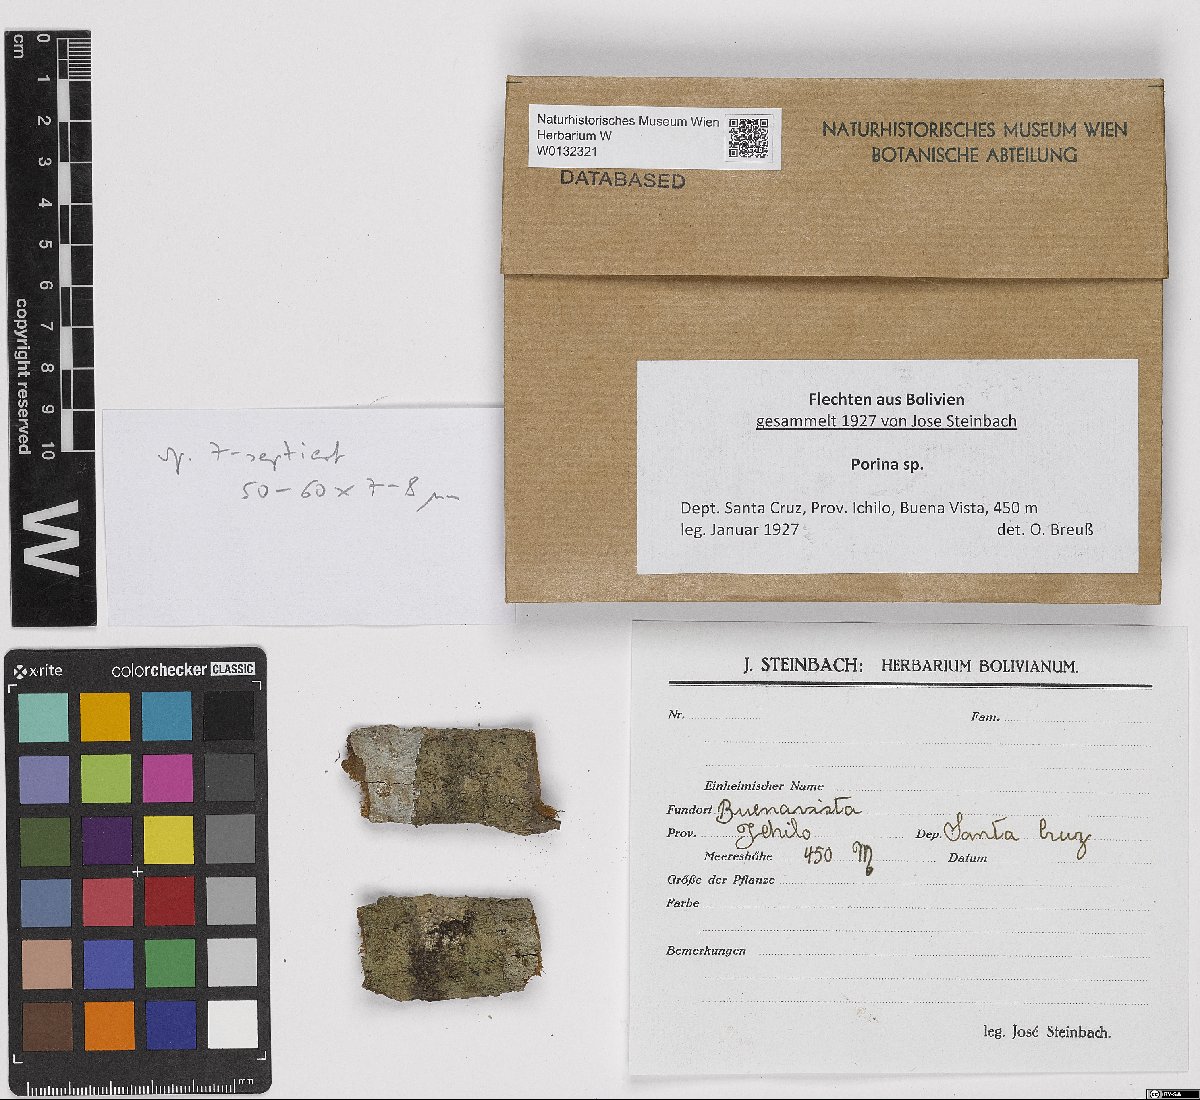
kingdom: Fungi
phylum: Ascomycota
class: Lecanoromycetes
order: Ostropales
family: Porinaceae
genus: Porina
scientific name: Porina
